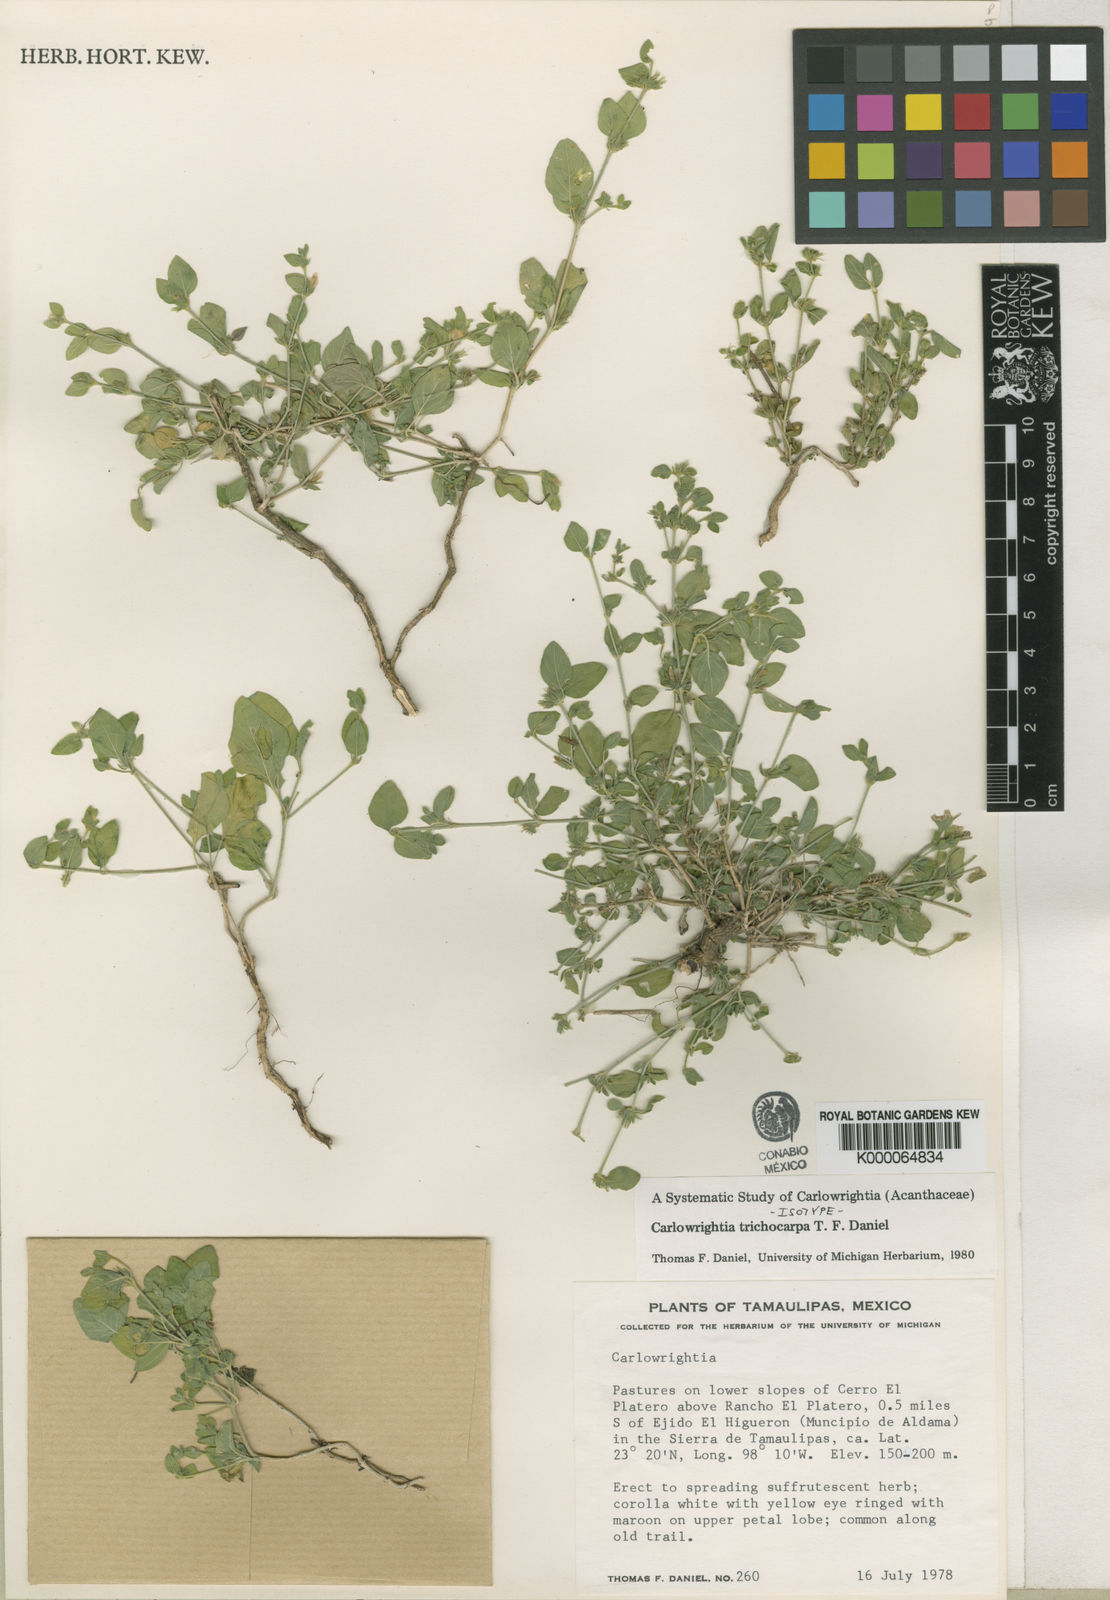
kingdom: Plantae
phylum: Tracheophyta
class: Magnoliopsida
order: Lamiales
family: Acanthaceae
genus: Carlowrightia
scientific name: Carlowrightia trichocarpa
